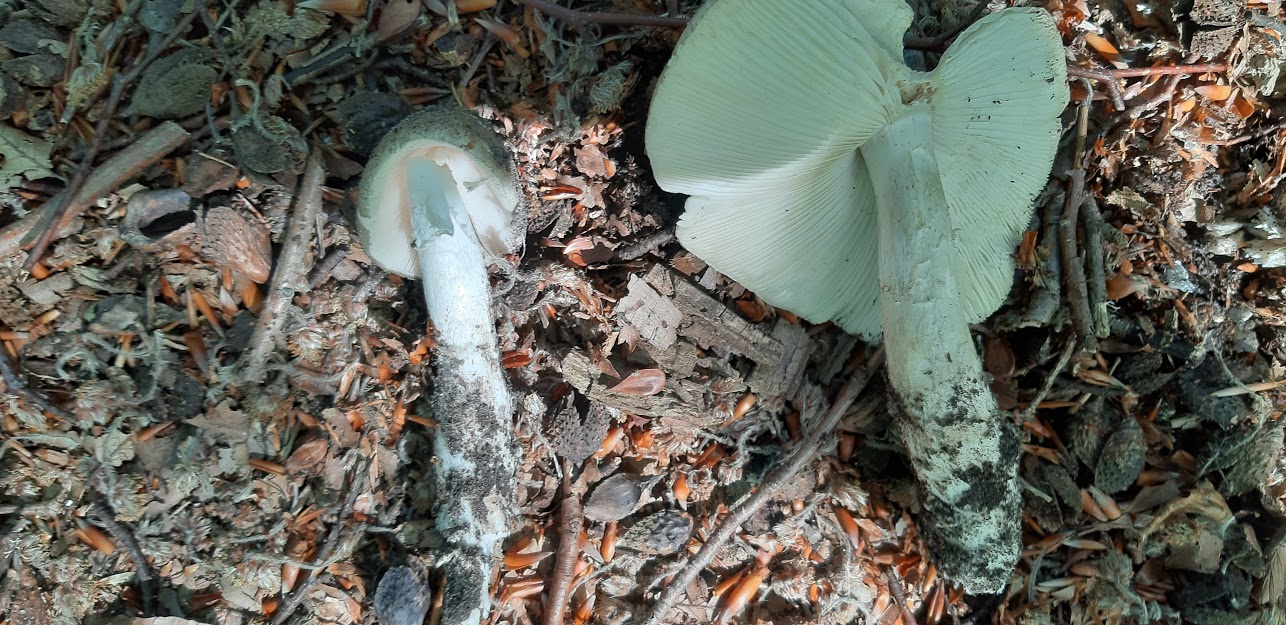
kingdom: Fungi
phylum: Basidiomycota
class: Agaricomycetes
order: Agaricales
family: Amanitaceae
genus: Amanita
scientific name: Amanita
